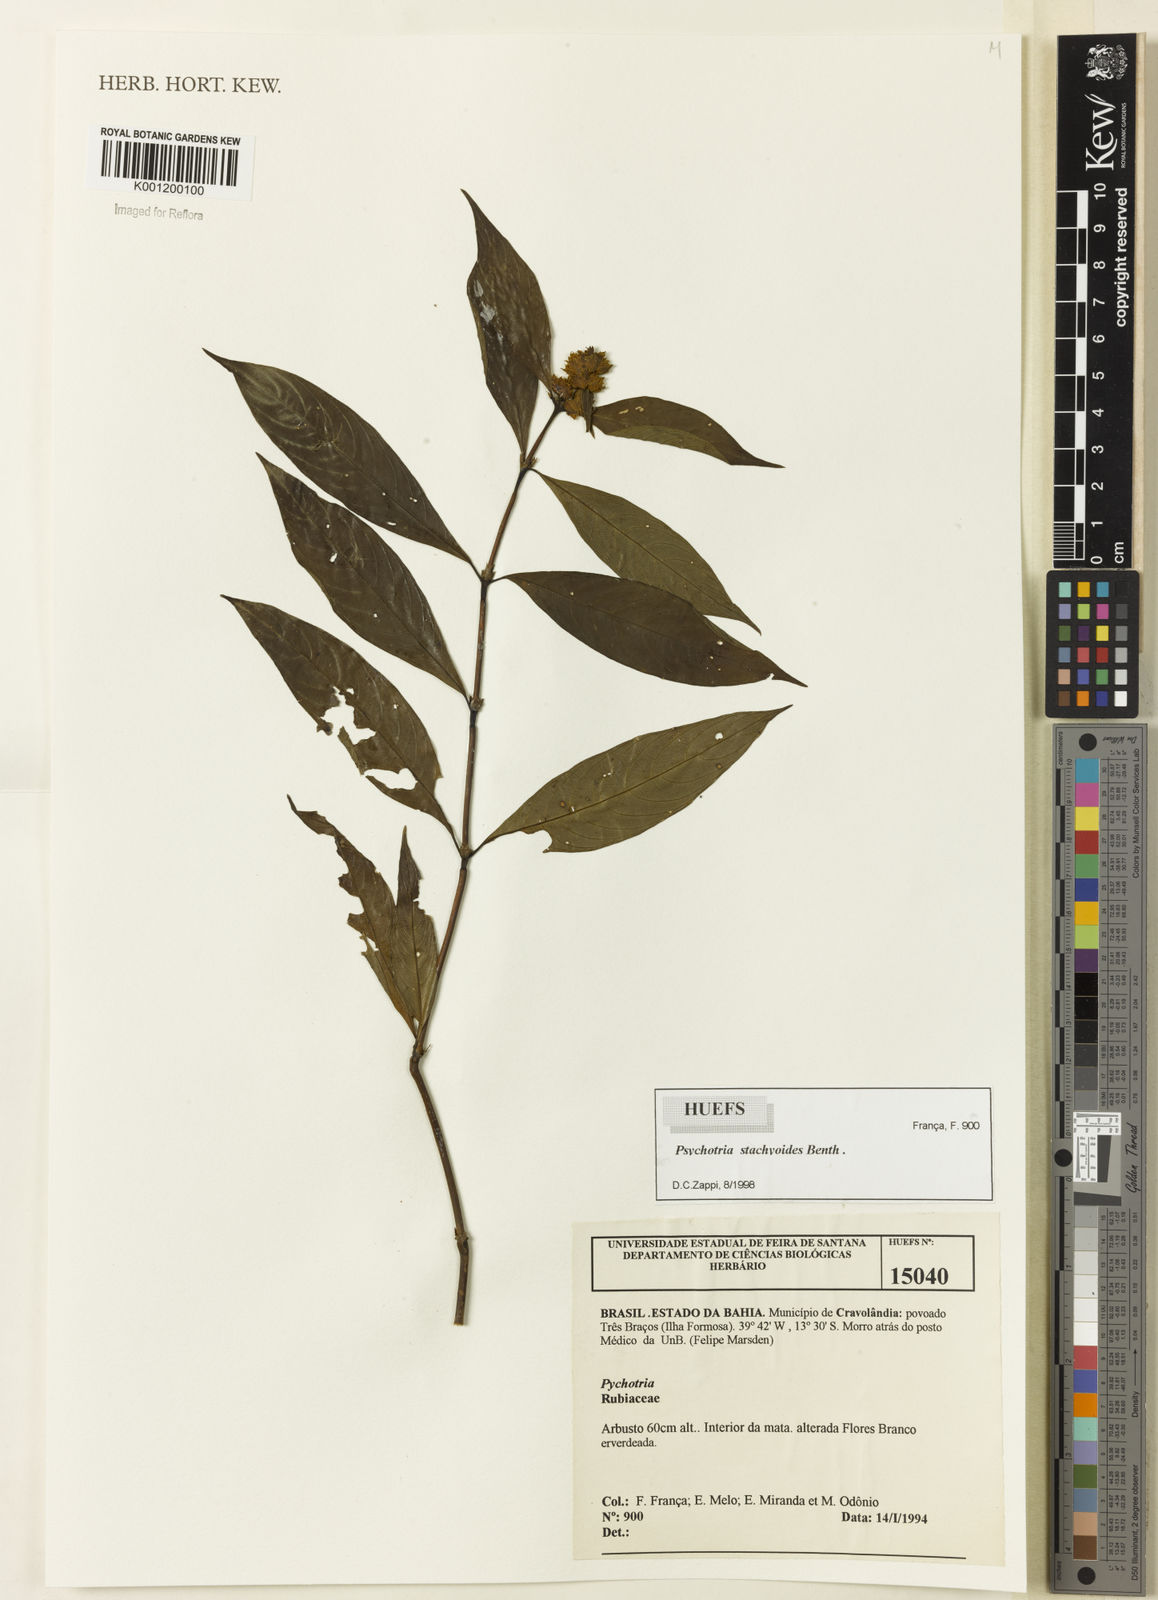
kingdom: Plantae
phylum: Tracheophyta
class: Magnoliopsida
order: Gentianales
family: Rubiaceae
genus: Psychotria
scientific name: Psychotria stachyoides
